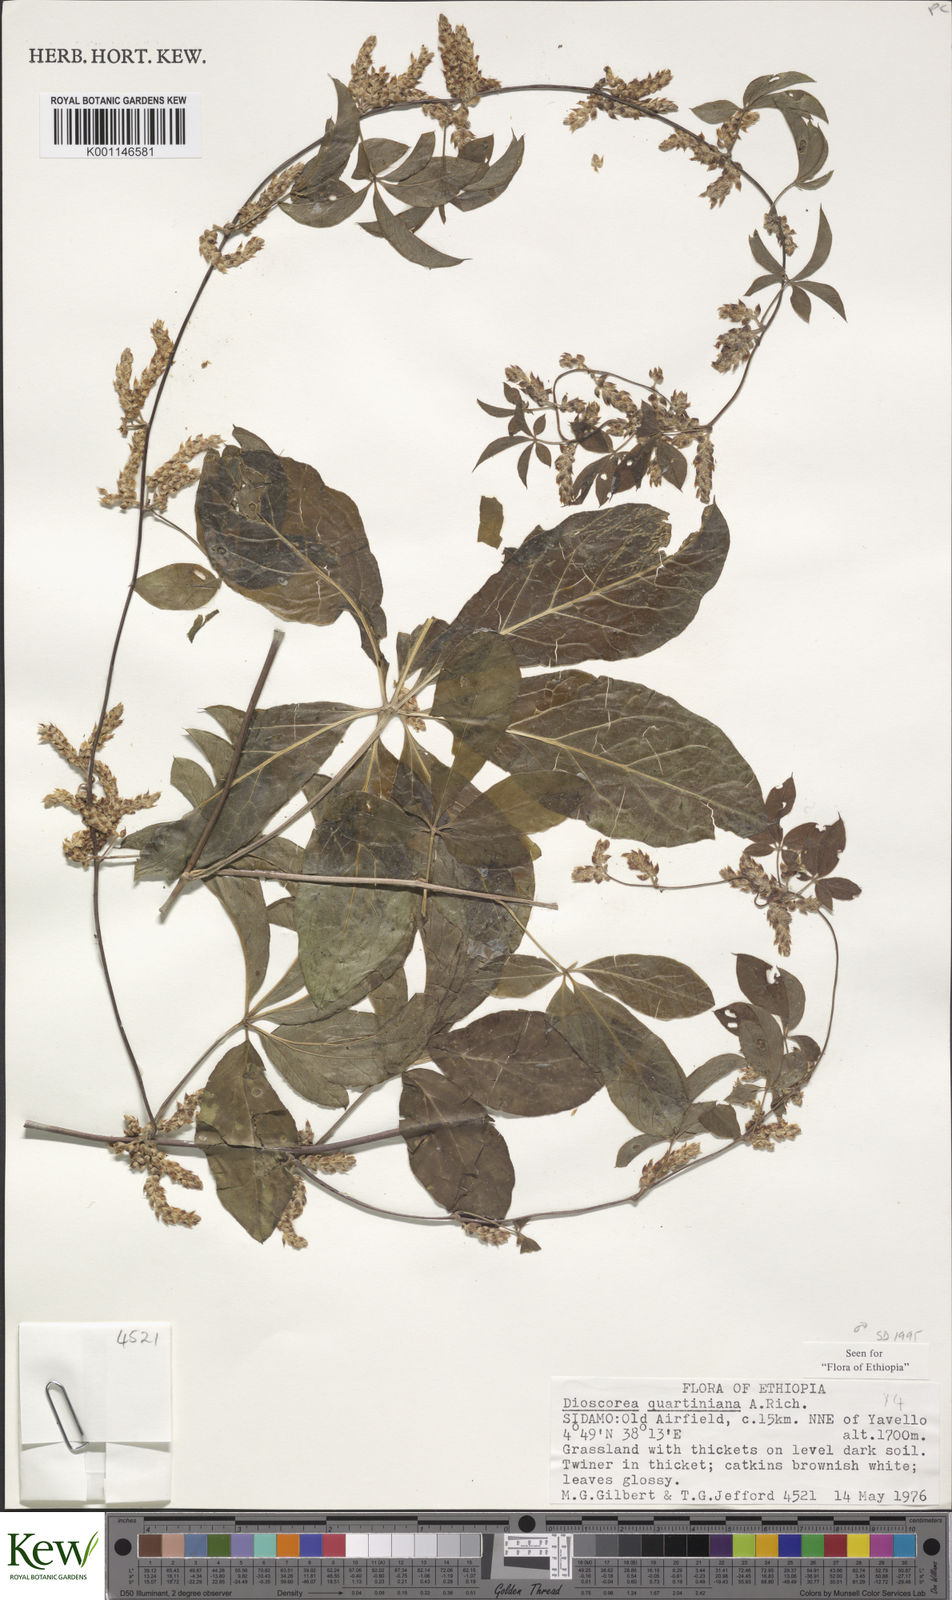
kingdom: Plantae
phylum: Tracheophyta
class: Liliopsida
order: Dioscoreales
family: Dioscoreaceae
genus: Dioscorea
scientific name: Dioscorea quartiniana
